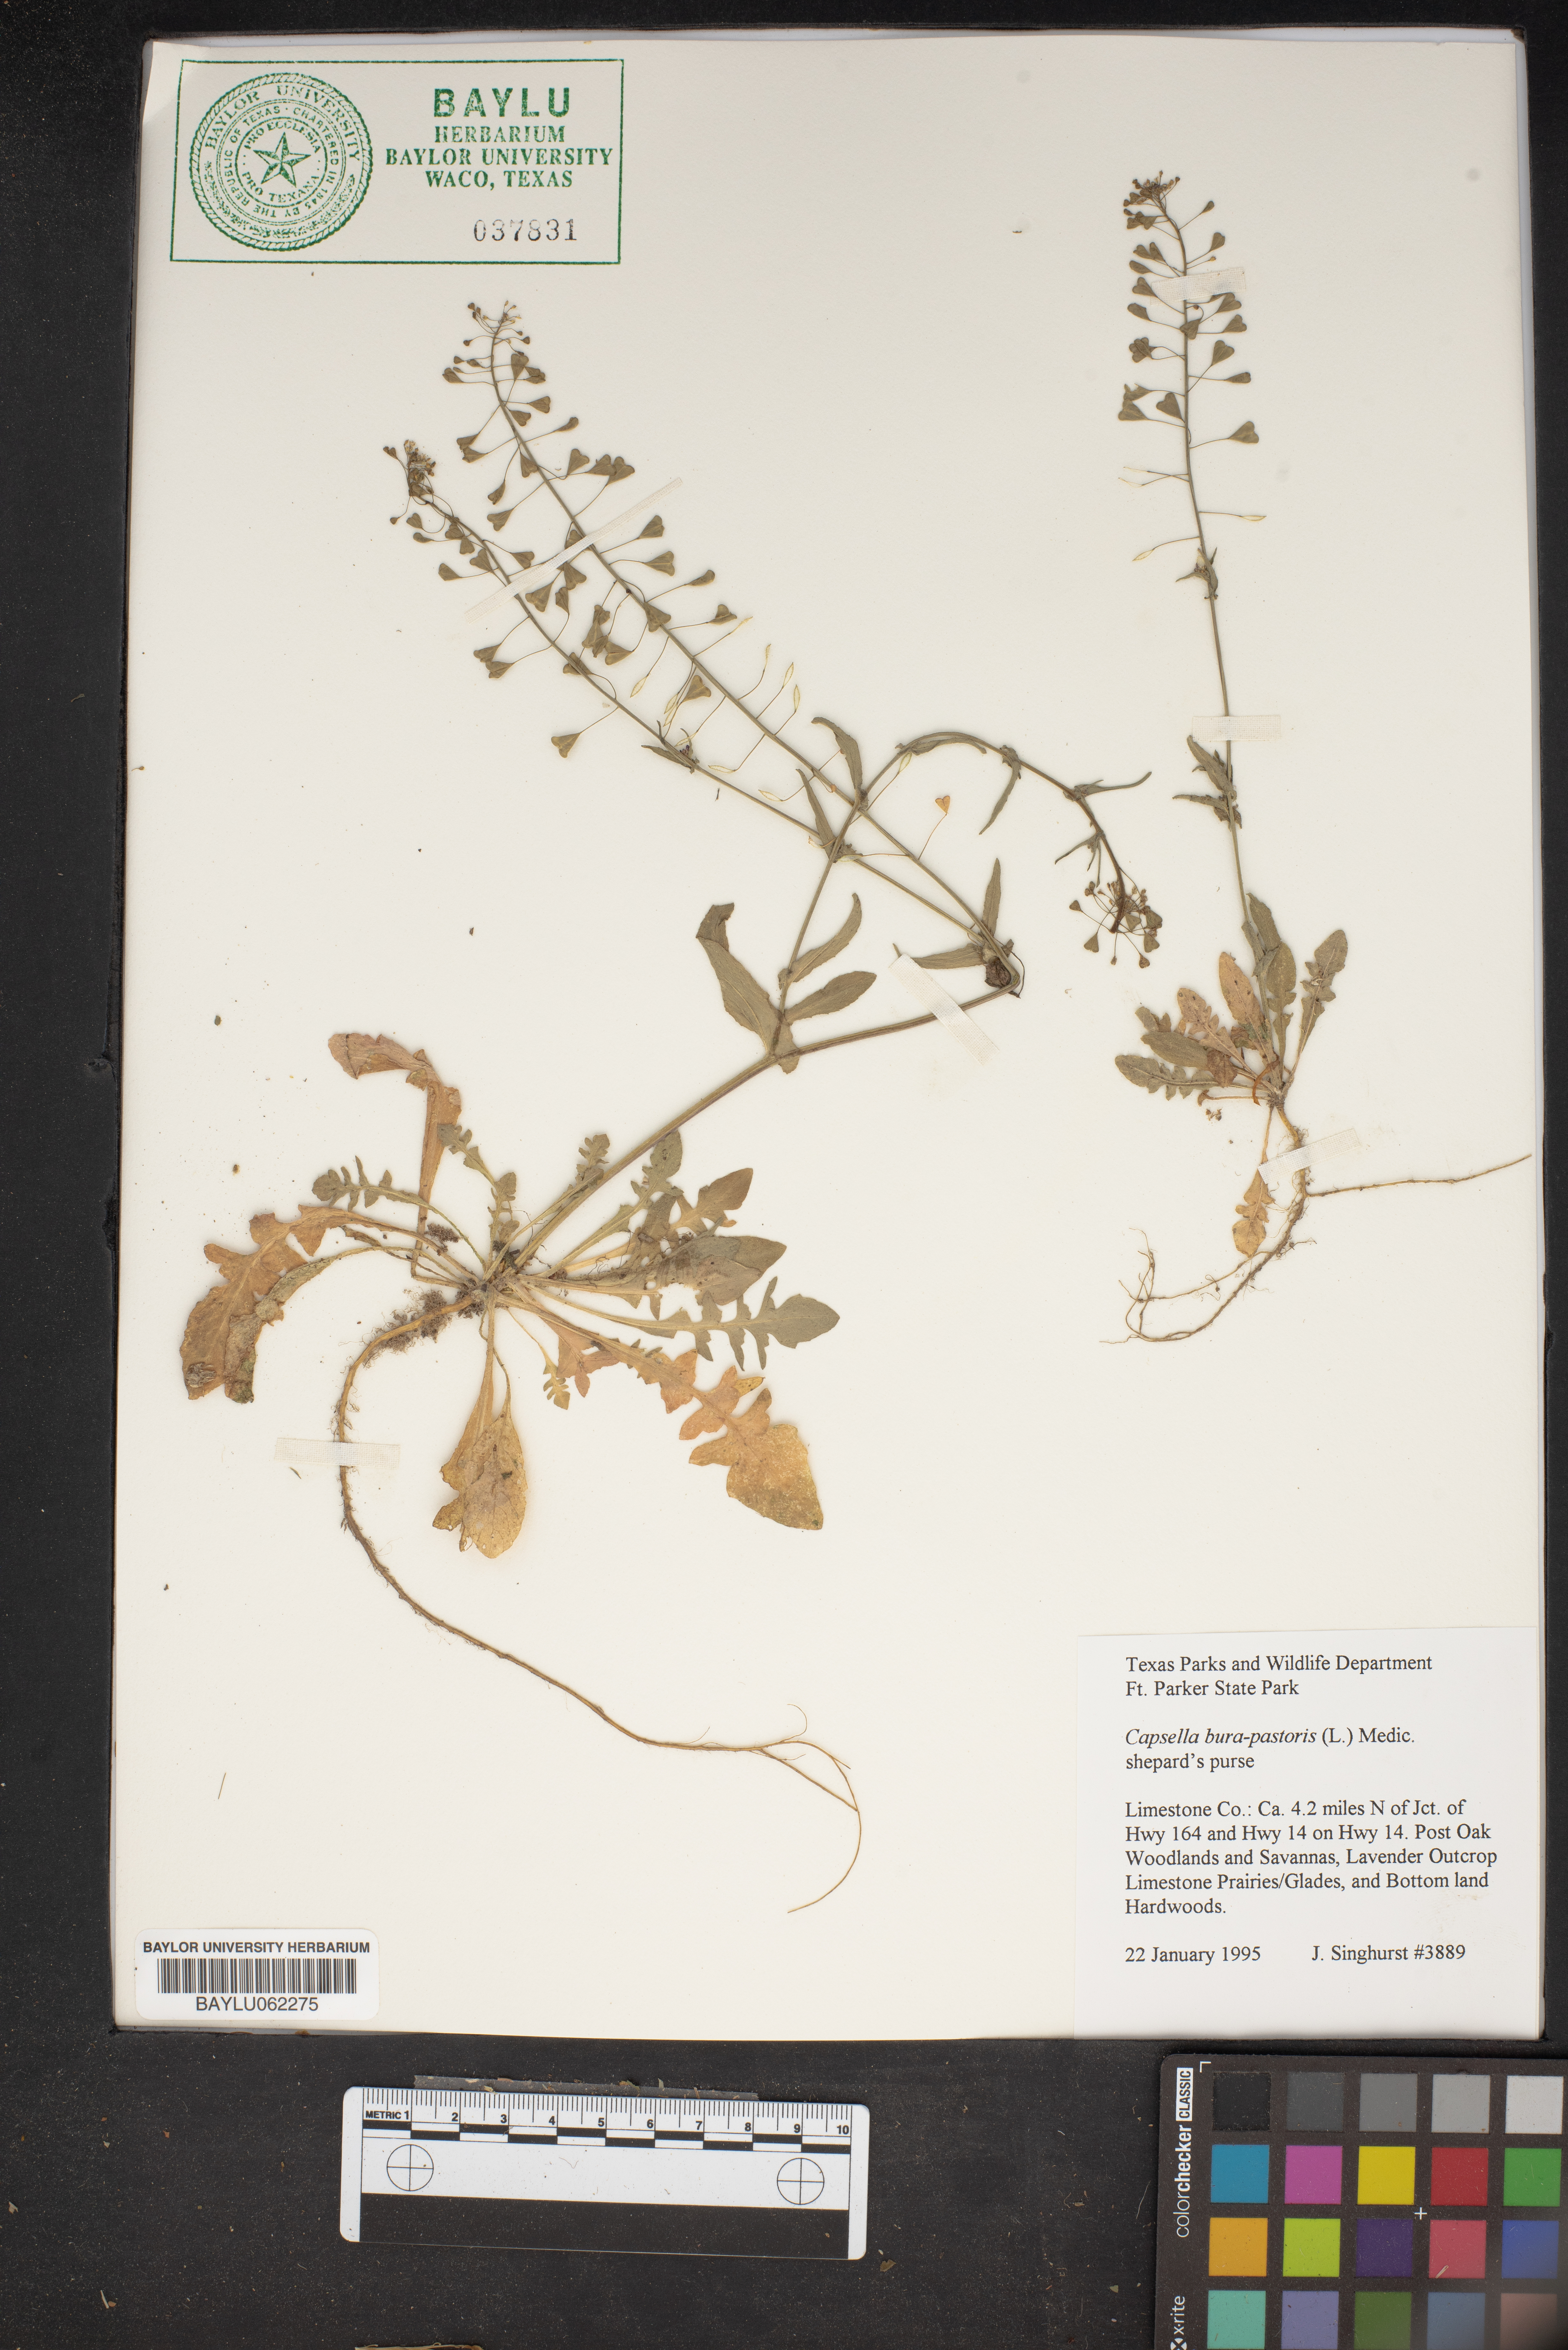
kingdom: Plantae
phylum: Tracheophyta
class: Magnoliopsida
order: Brassicales
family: Brassicaceae
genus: Capsella
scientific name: Capsella bursa-pastoris
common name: Shepherd's purse
